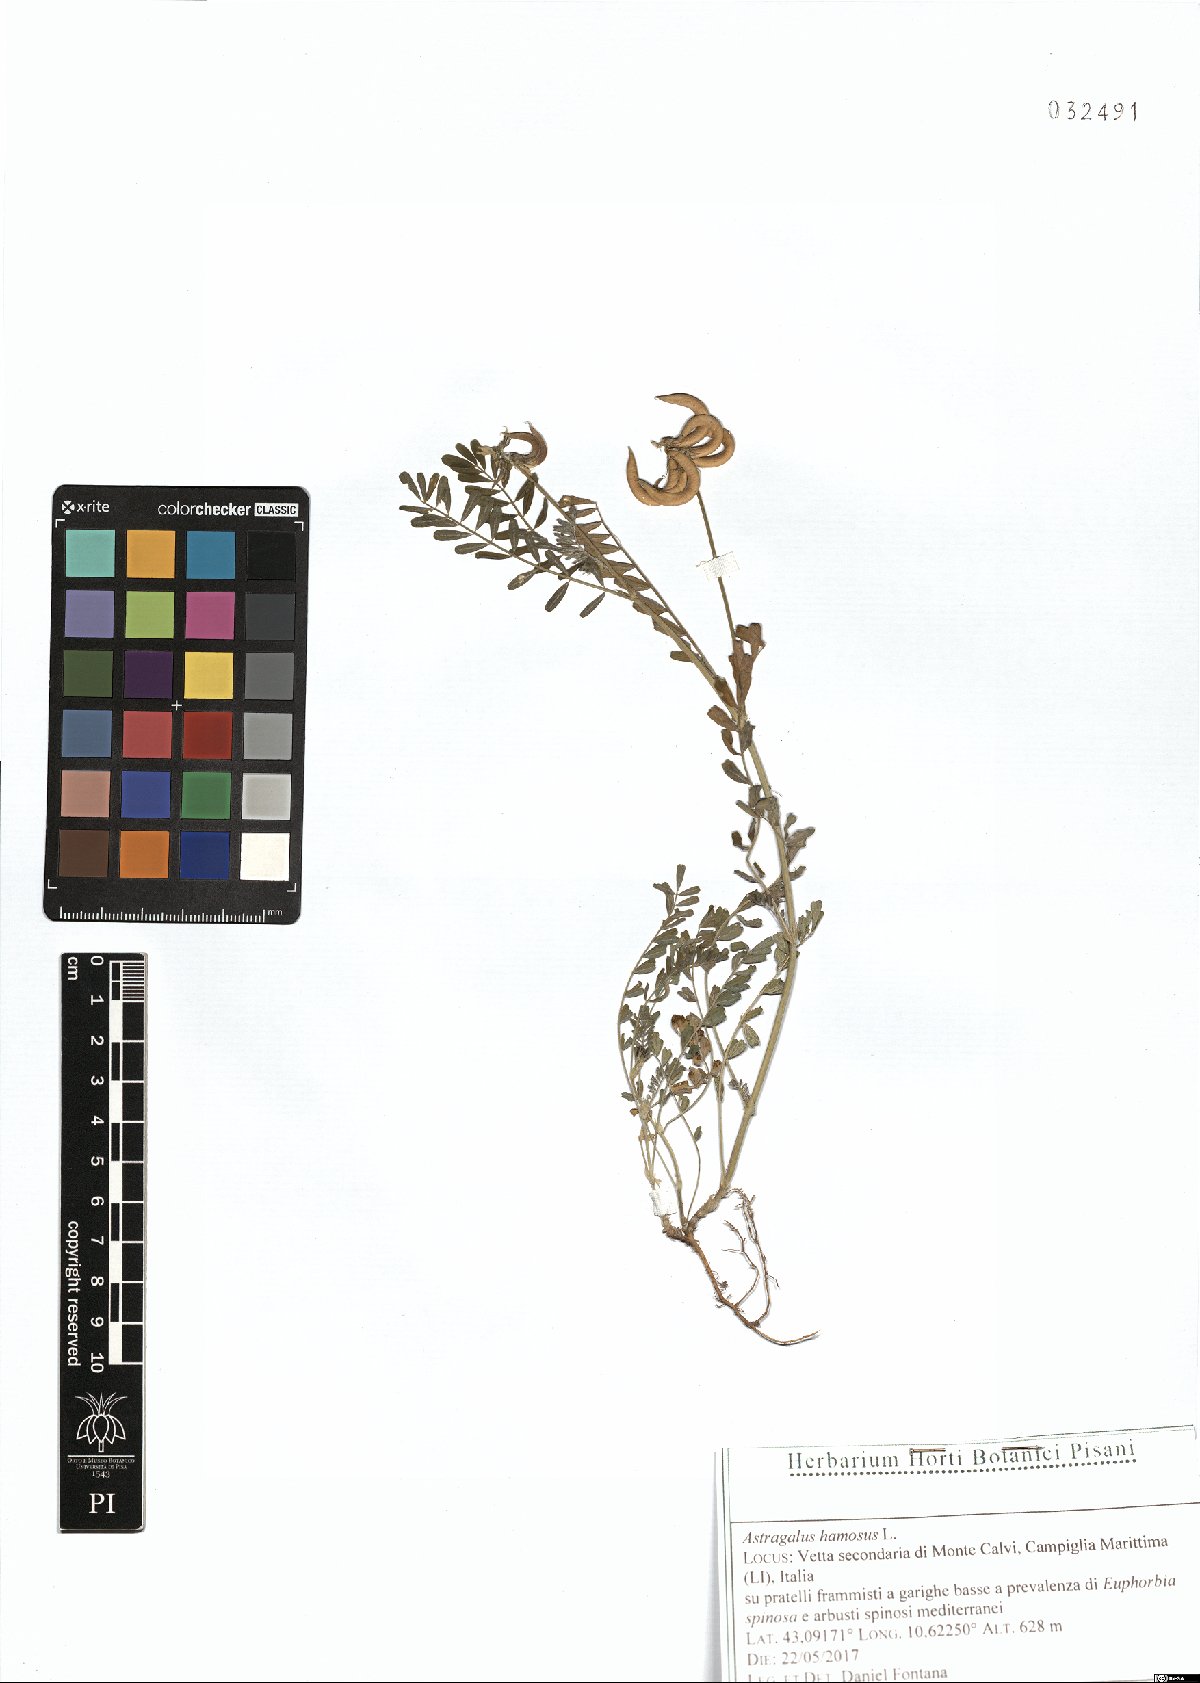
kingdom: Plantae
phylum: Tracheophyta
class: Magnoliopsida
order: Fabales
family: Fabaceae
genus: Astragalus
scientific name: Astragalus hamosus
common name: European milkvetch
